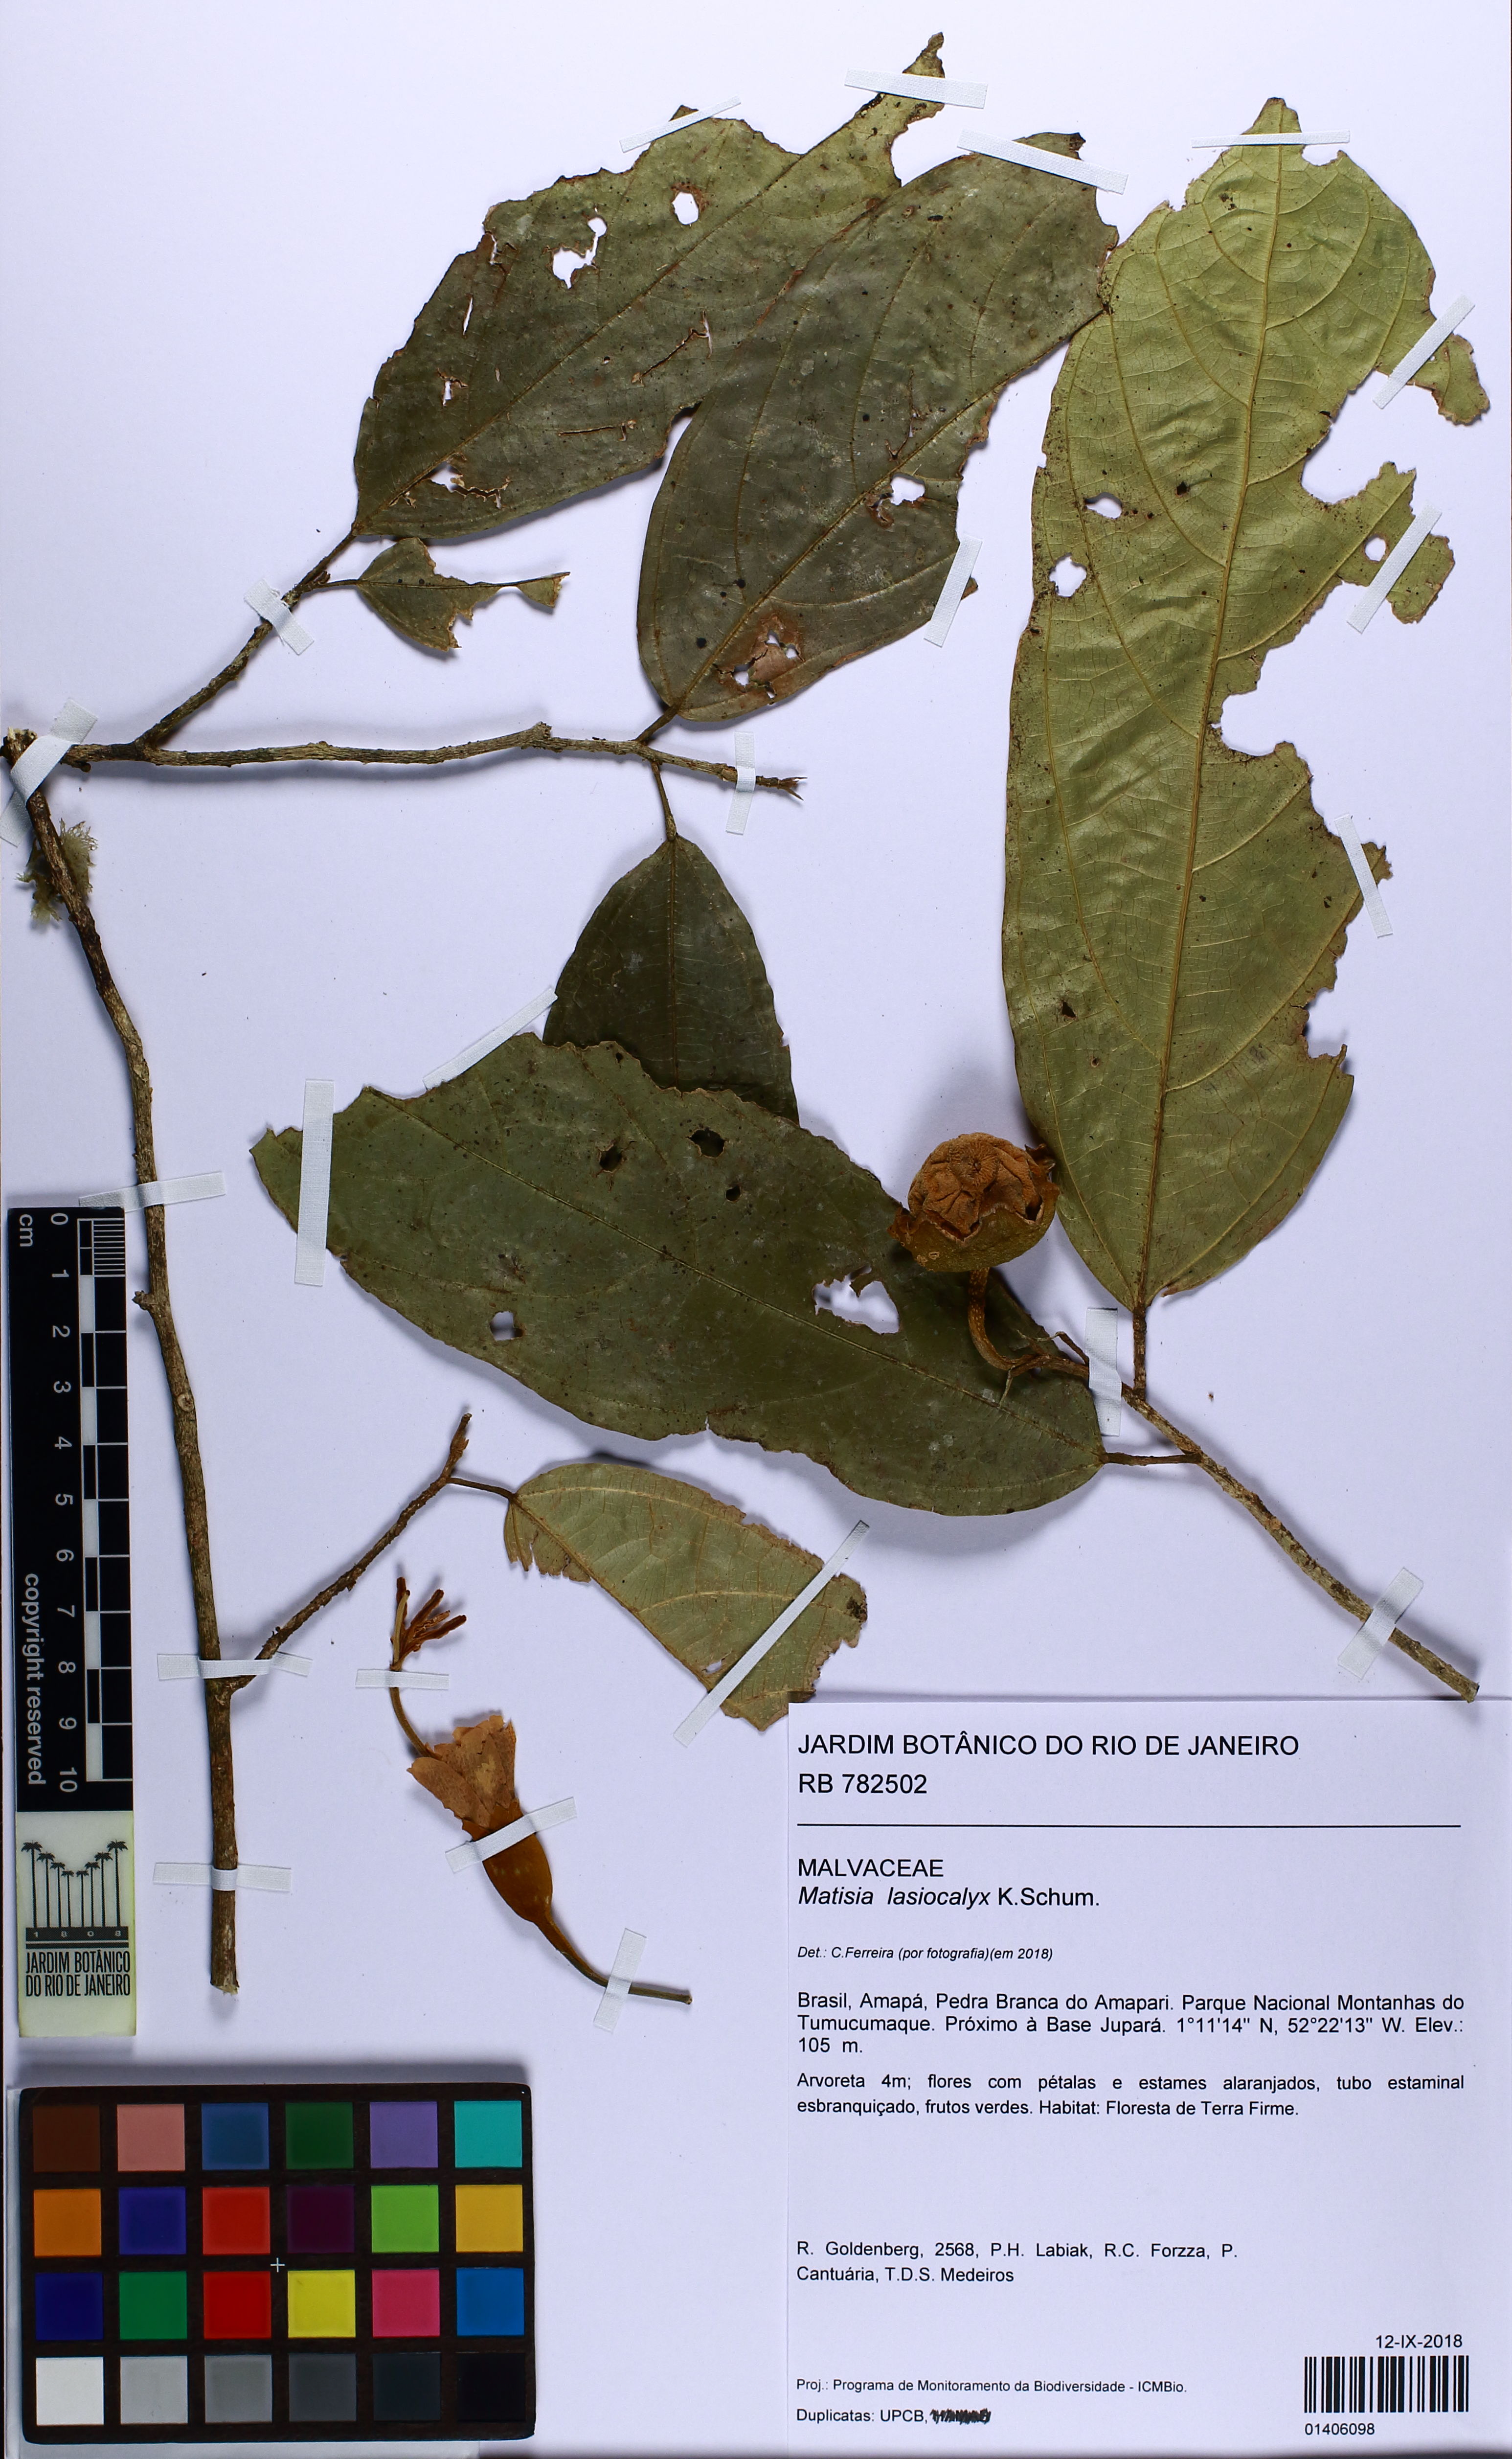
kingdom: Plantae
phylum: Tracheophyta
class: Magnoliopsida
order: Malvales
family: Malvaceae
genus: Matisia
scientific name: Matisia lasiocalyx
